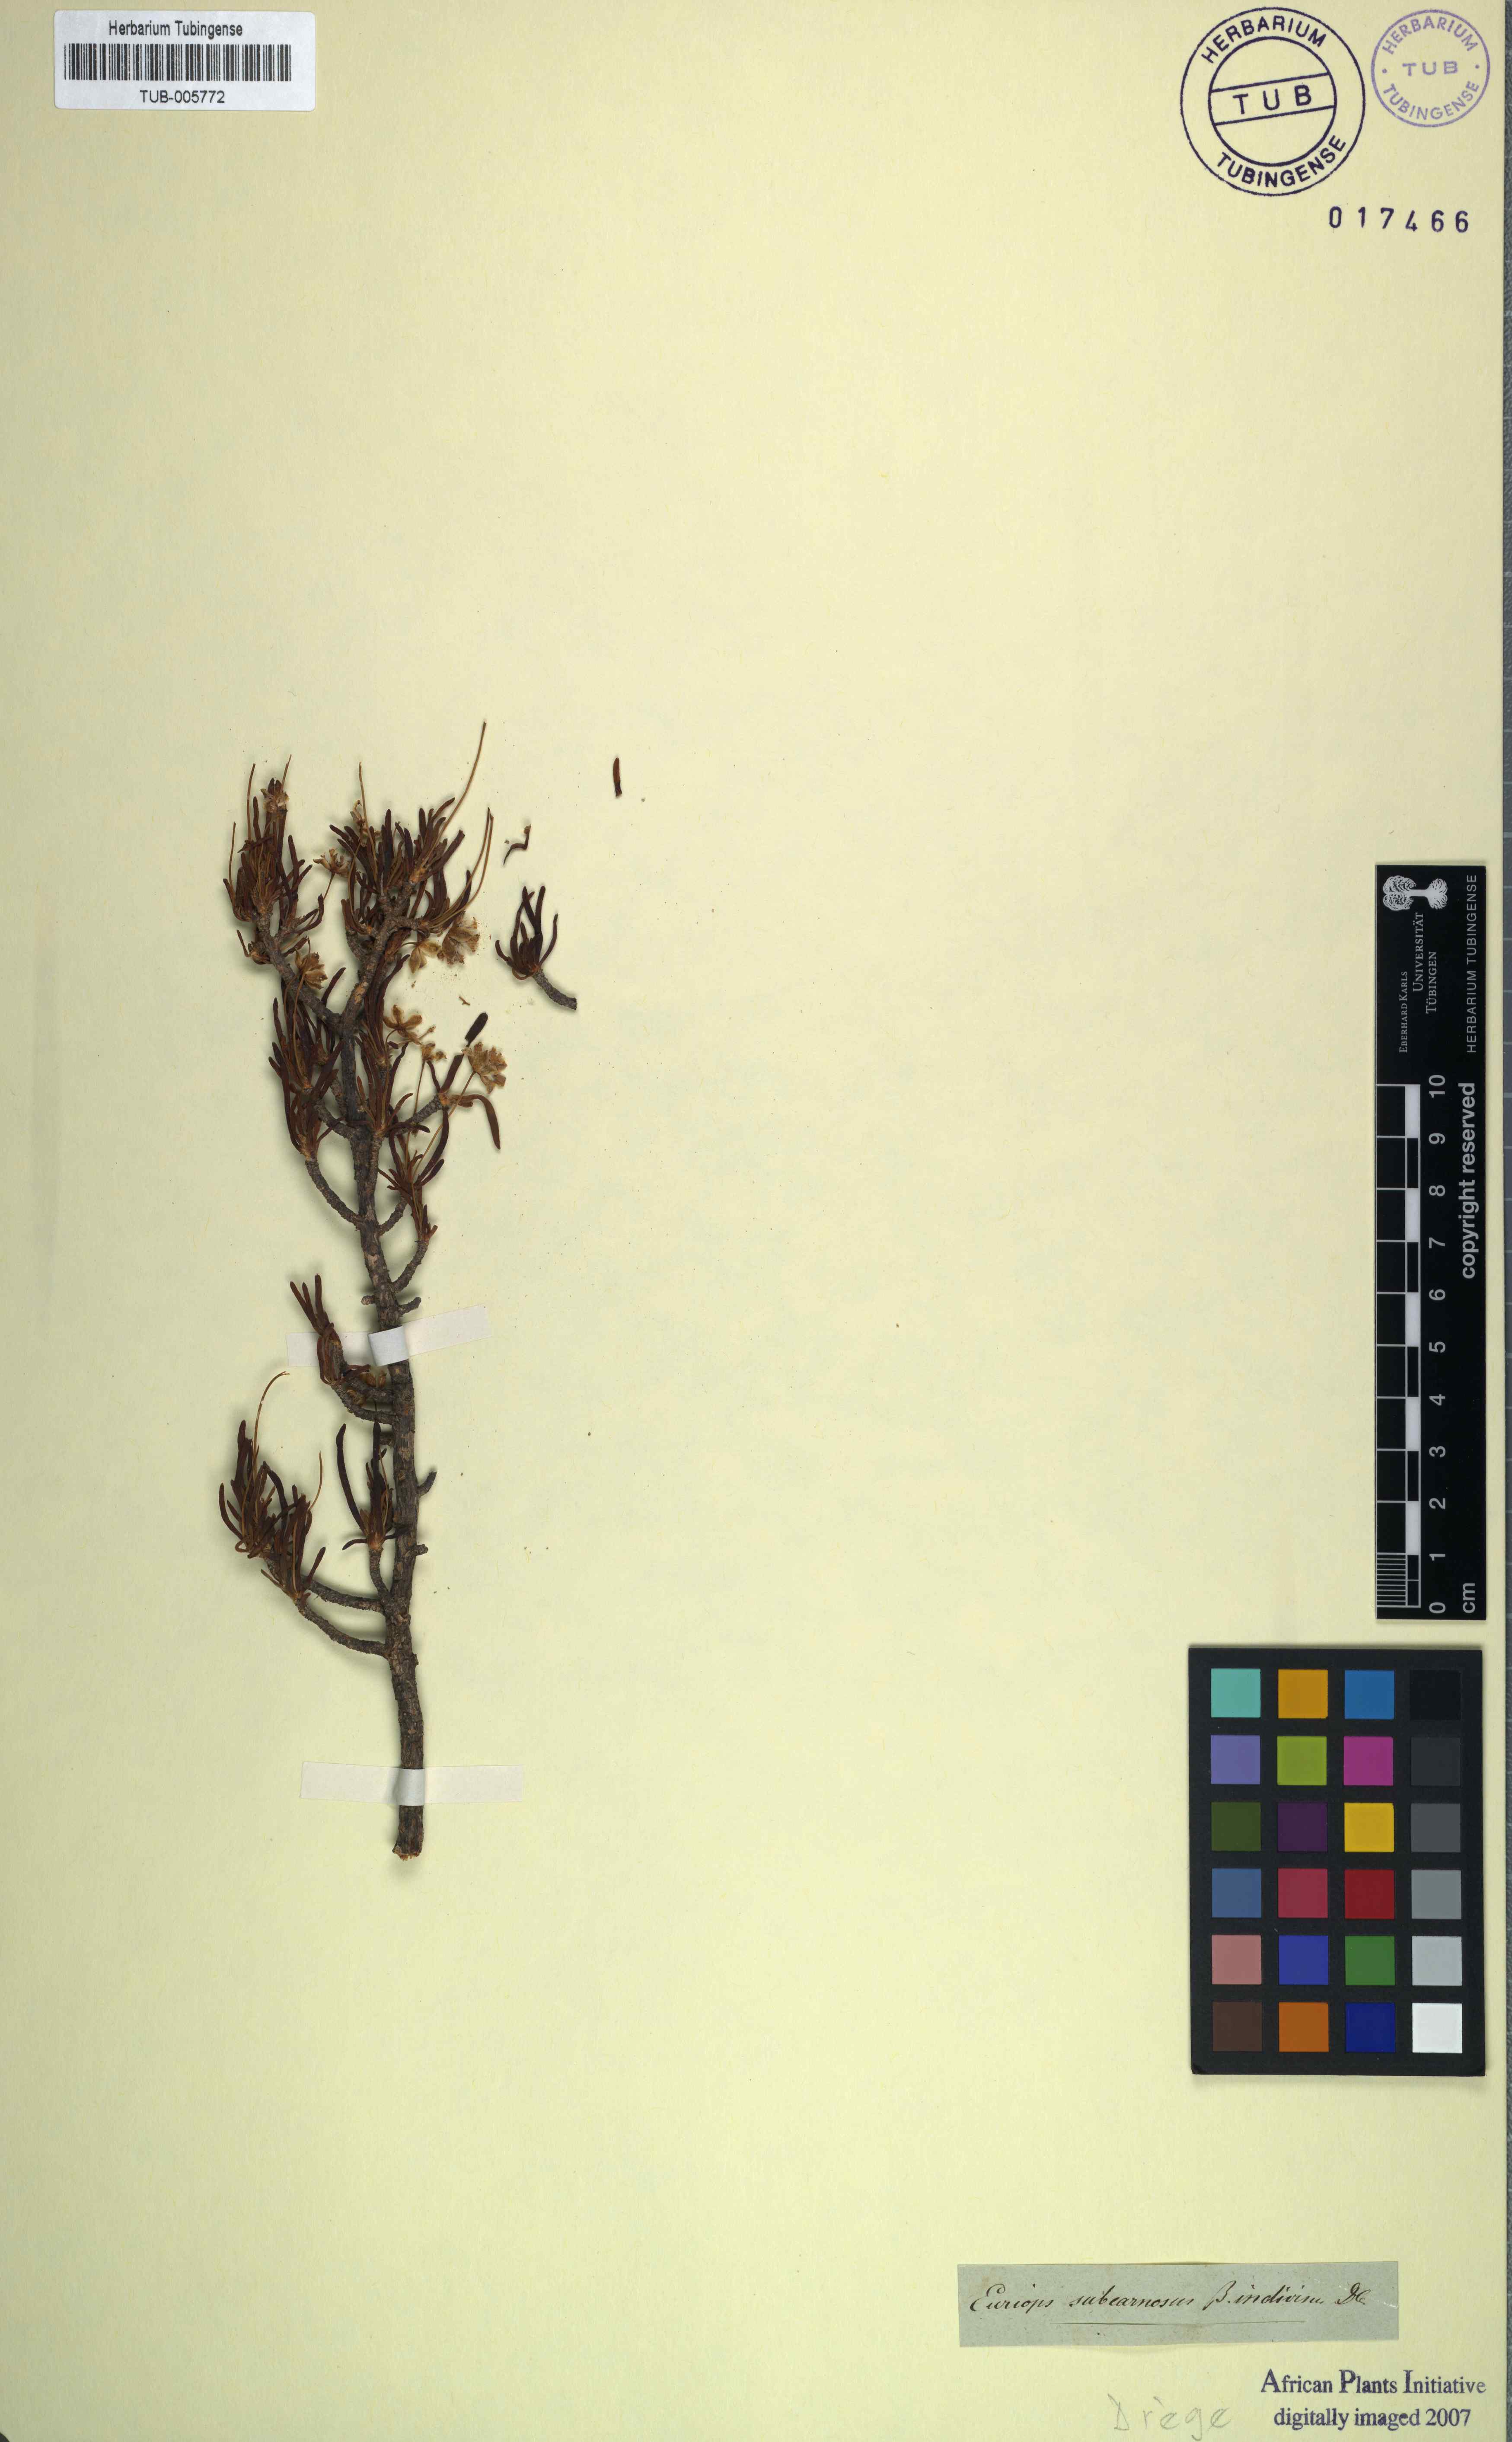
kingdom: Plantae
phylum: Tracheophyta
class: Magnoliopsida
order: Asterales
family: Asteraceae
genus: Euryops
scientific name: Euryops subcarnosus
